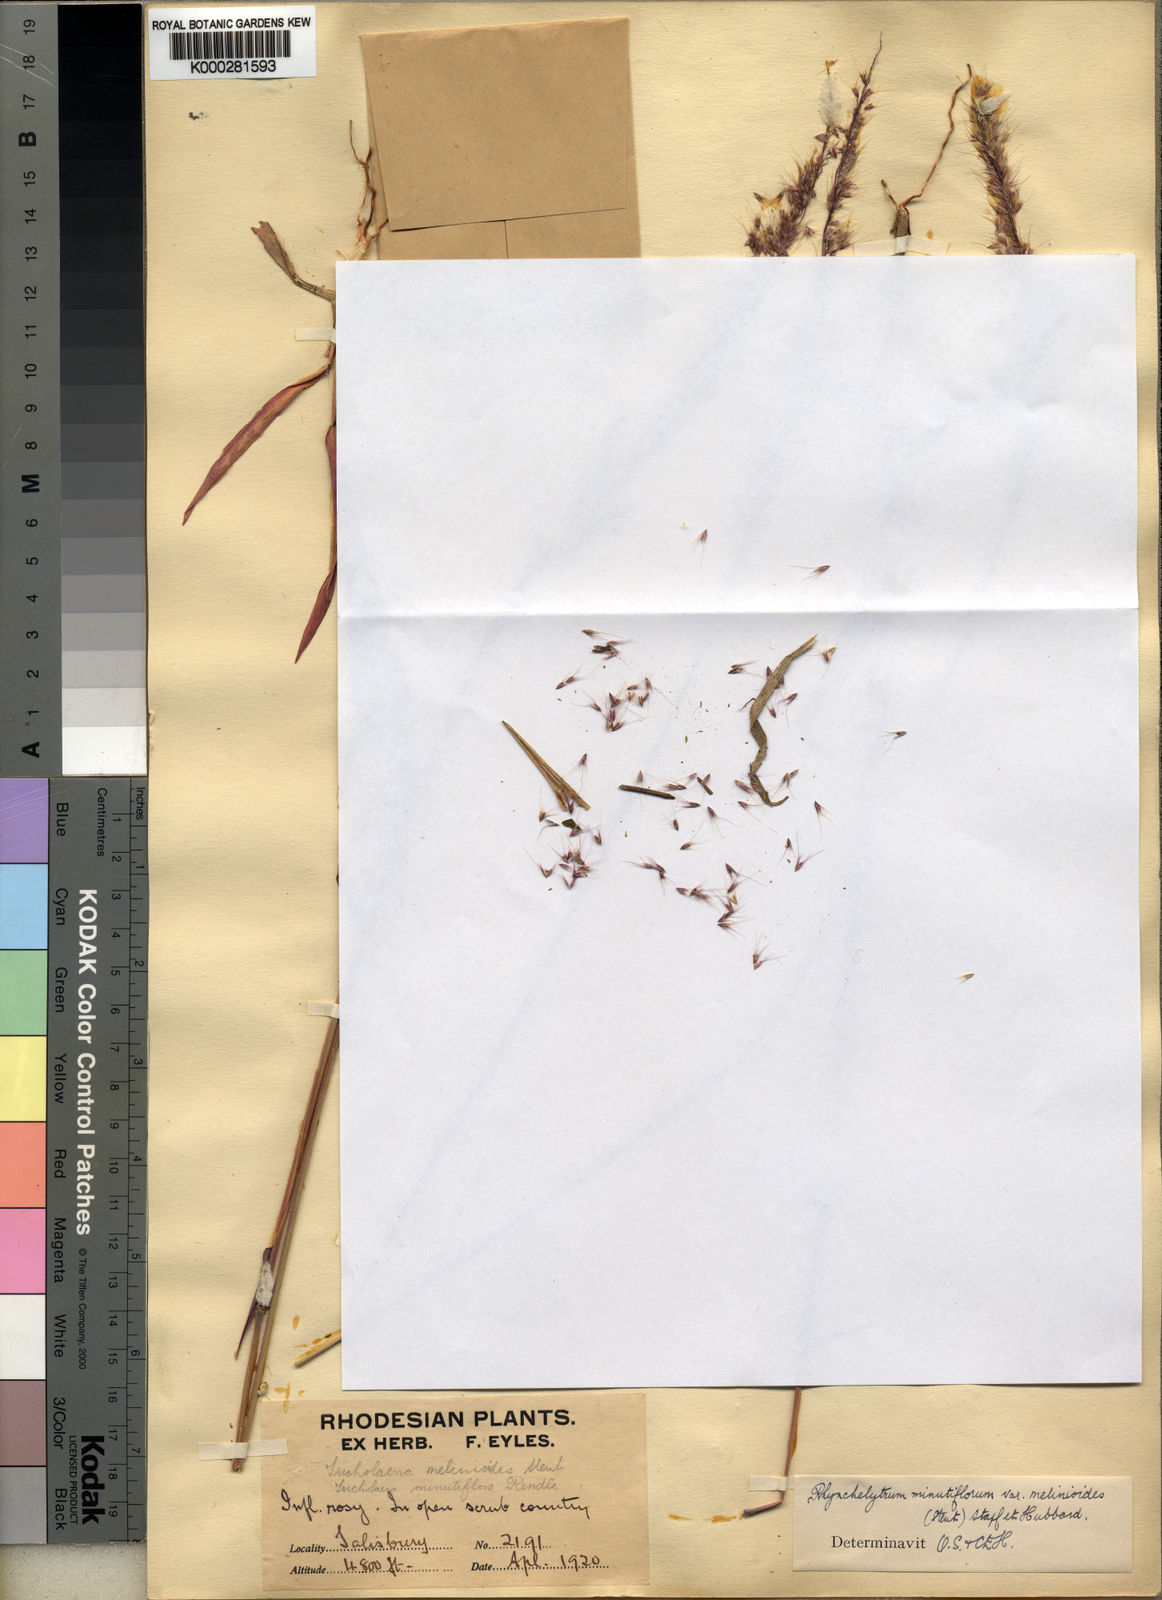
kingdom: Plantae
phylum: Tracheophyta
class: Liliopsida
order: Poales
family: Poaceae
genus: Melinis
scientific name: Melinis longiseta
